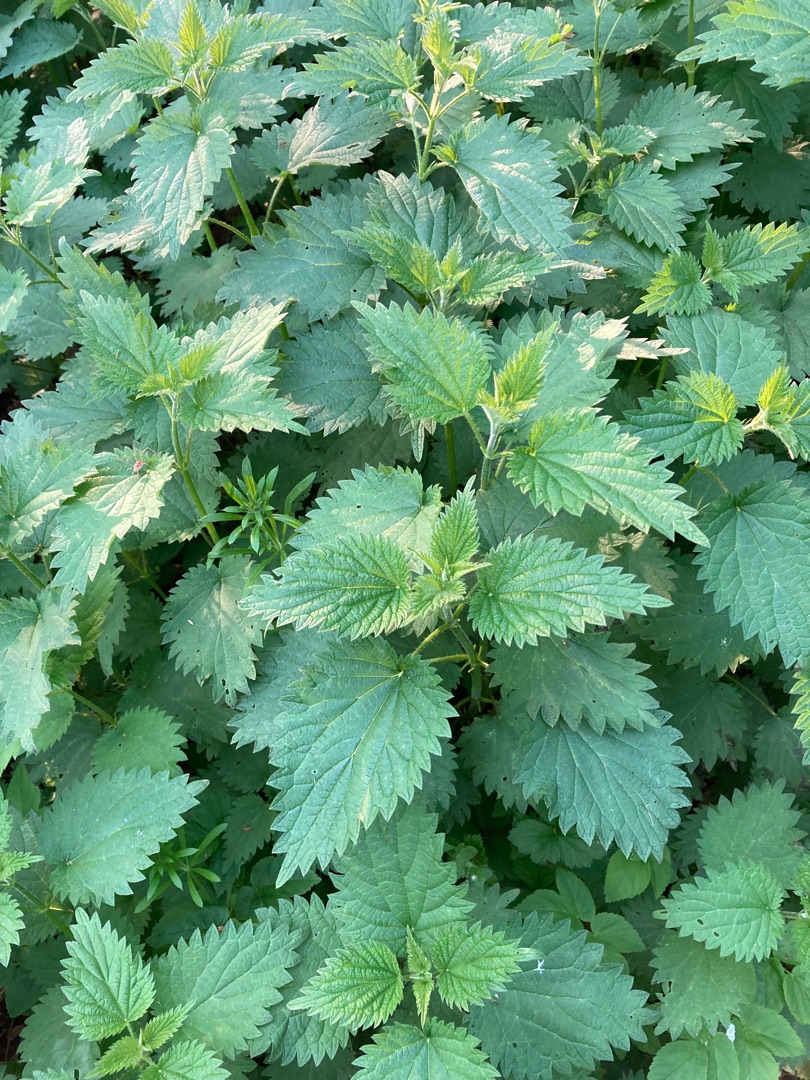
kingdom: Plantae
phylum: Tracheophyta
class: Magnoliopsida
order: Rosales
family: Urticaceae
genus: Urtica
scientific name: Urtica dioica
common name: Stor nælde
